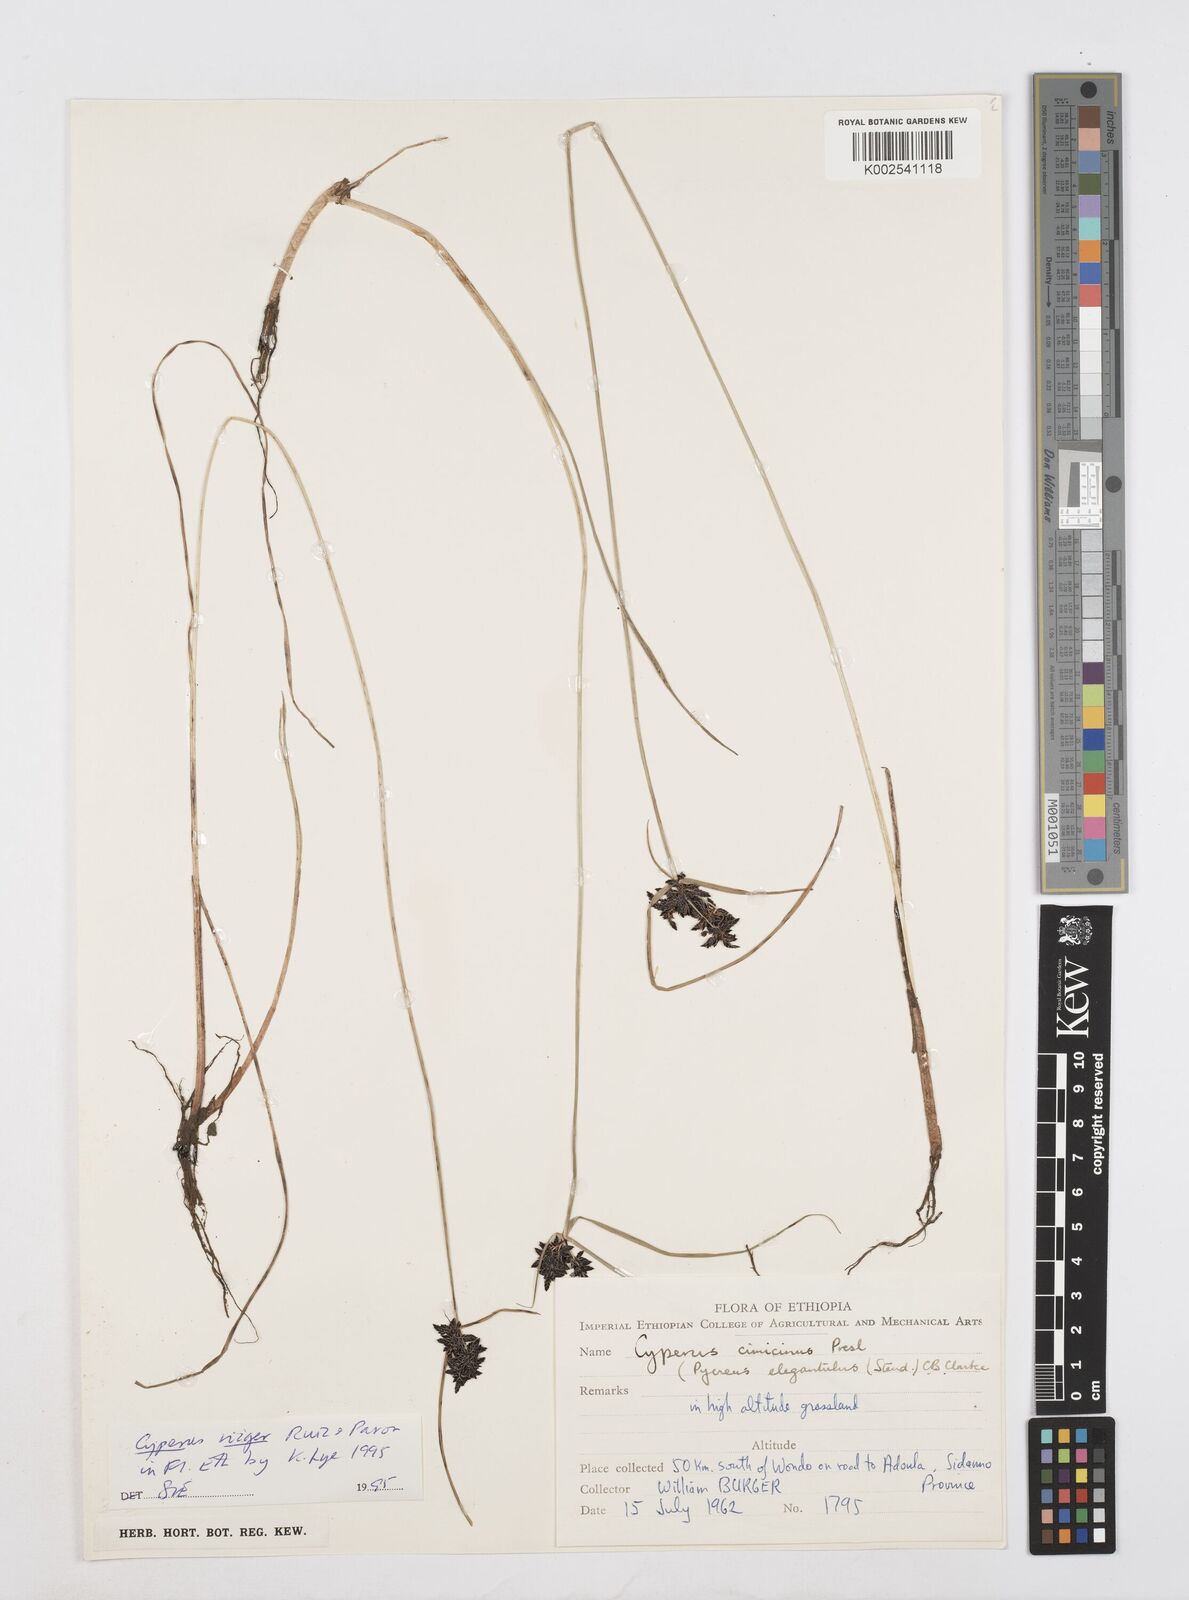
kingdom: Plantae
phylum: Tracheophyta
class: Liliopsida
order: Poales
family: Cyperaceae
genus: Cyperus
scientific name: Cyperus elegantulus
